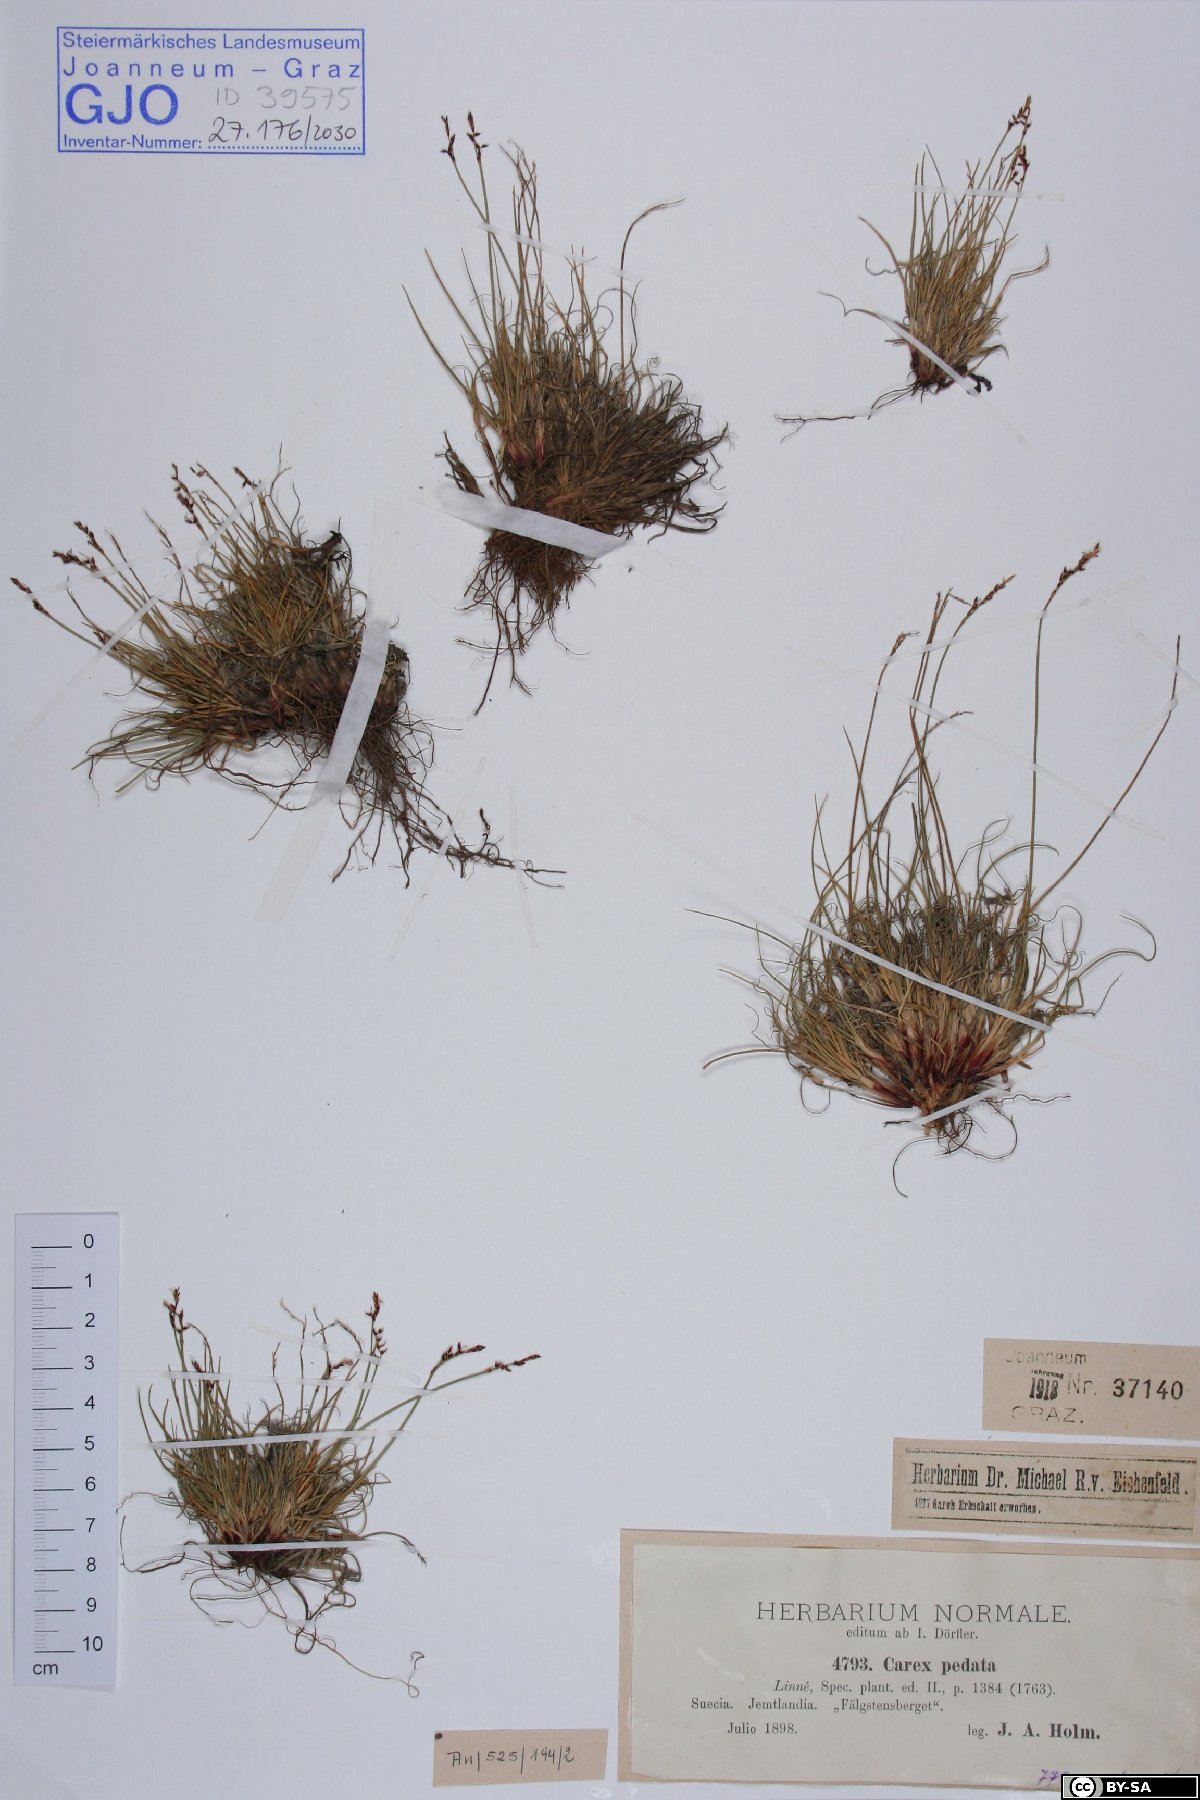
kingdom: Plantae
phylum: Tracheophyta
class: Liliopsida
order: Poales
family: Cyperaceae
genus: Carex
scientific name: Carex ornithopoda
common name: Bird's-foot sedge
